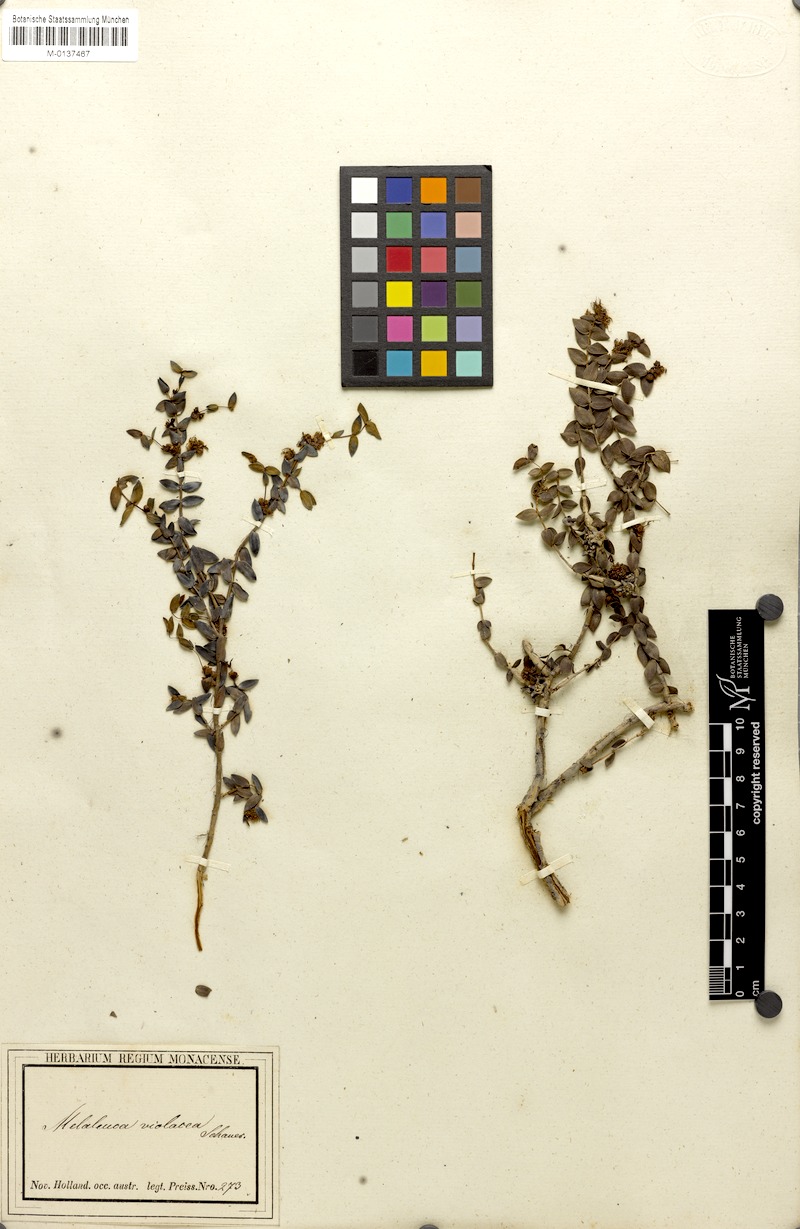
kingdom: Plantae
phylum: Tracheophyta
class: Magnoliopsida
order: Myrtales
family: Myrtaceae
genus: Melaleuca
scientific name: Melaleuca violacea
